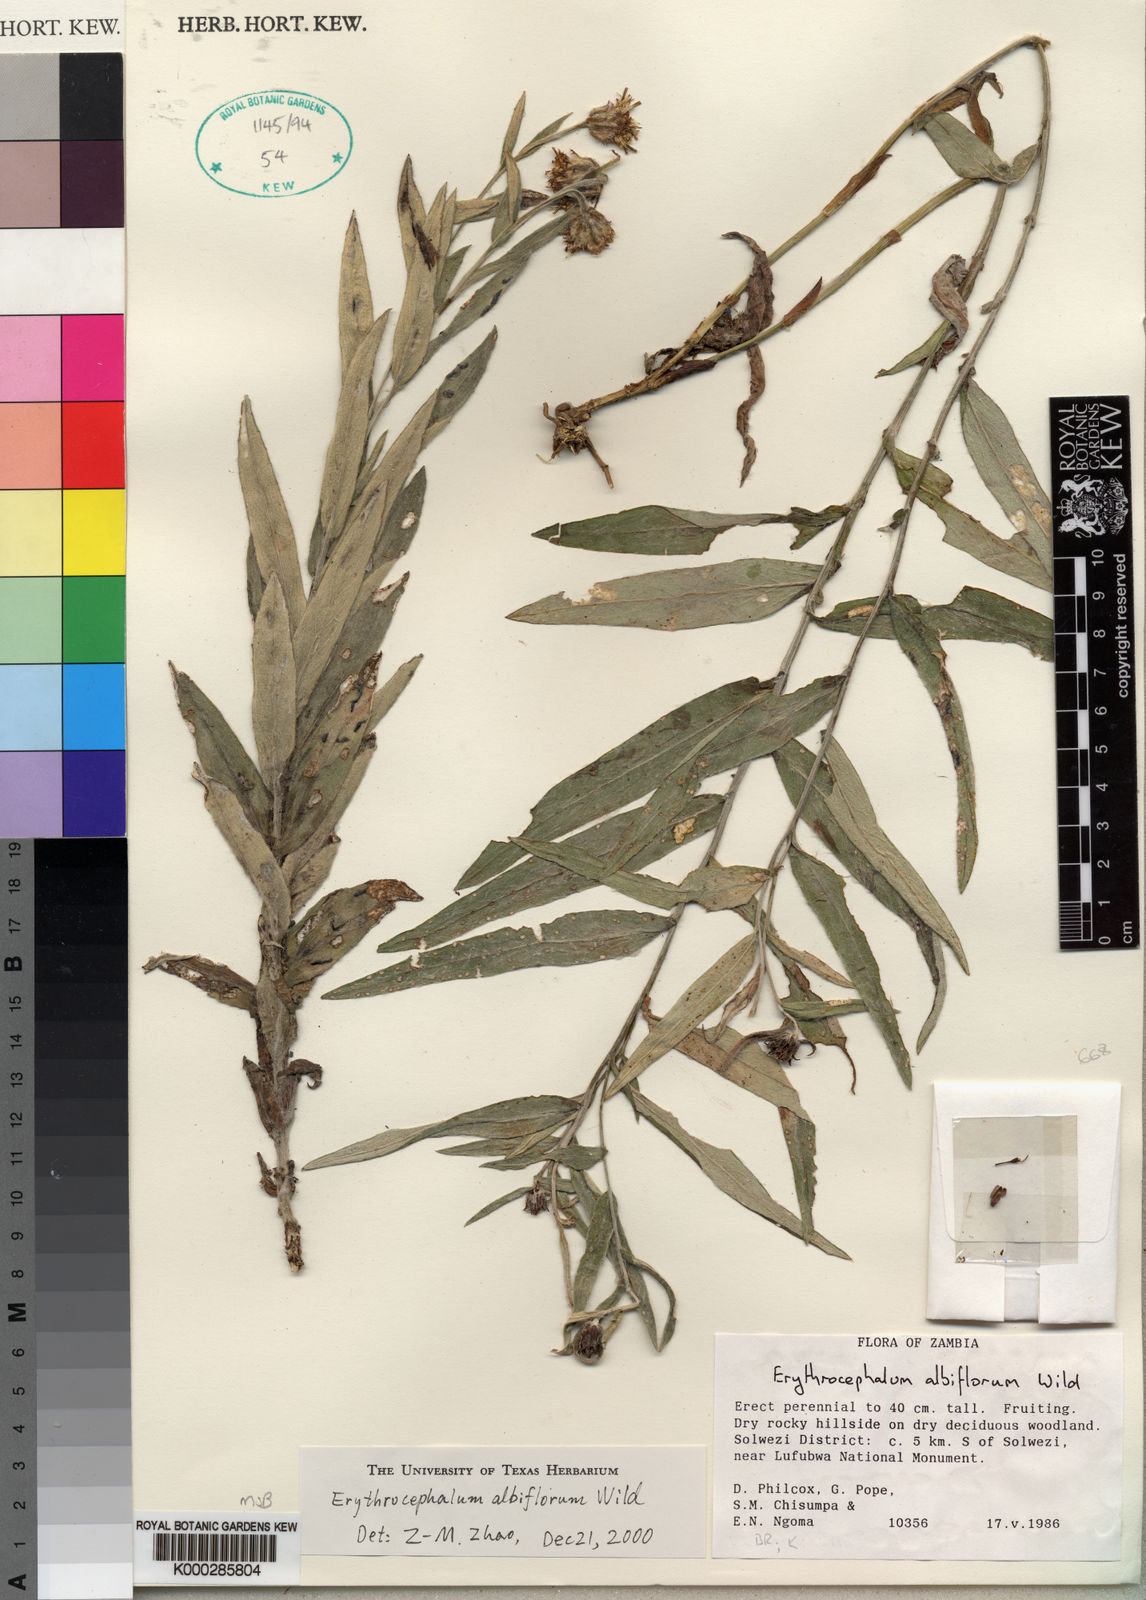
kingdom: Plantae
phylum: Tracheophyta
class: Magnoliopsida
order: Asterales
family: Asteraceae
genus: Erythrocephalum
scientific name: Erythrocephalum albiflorum
